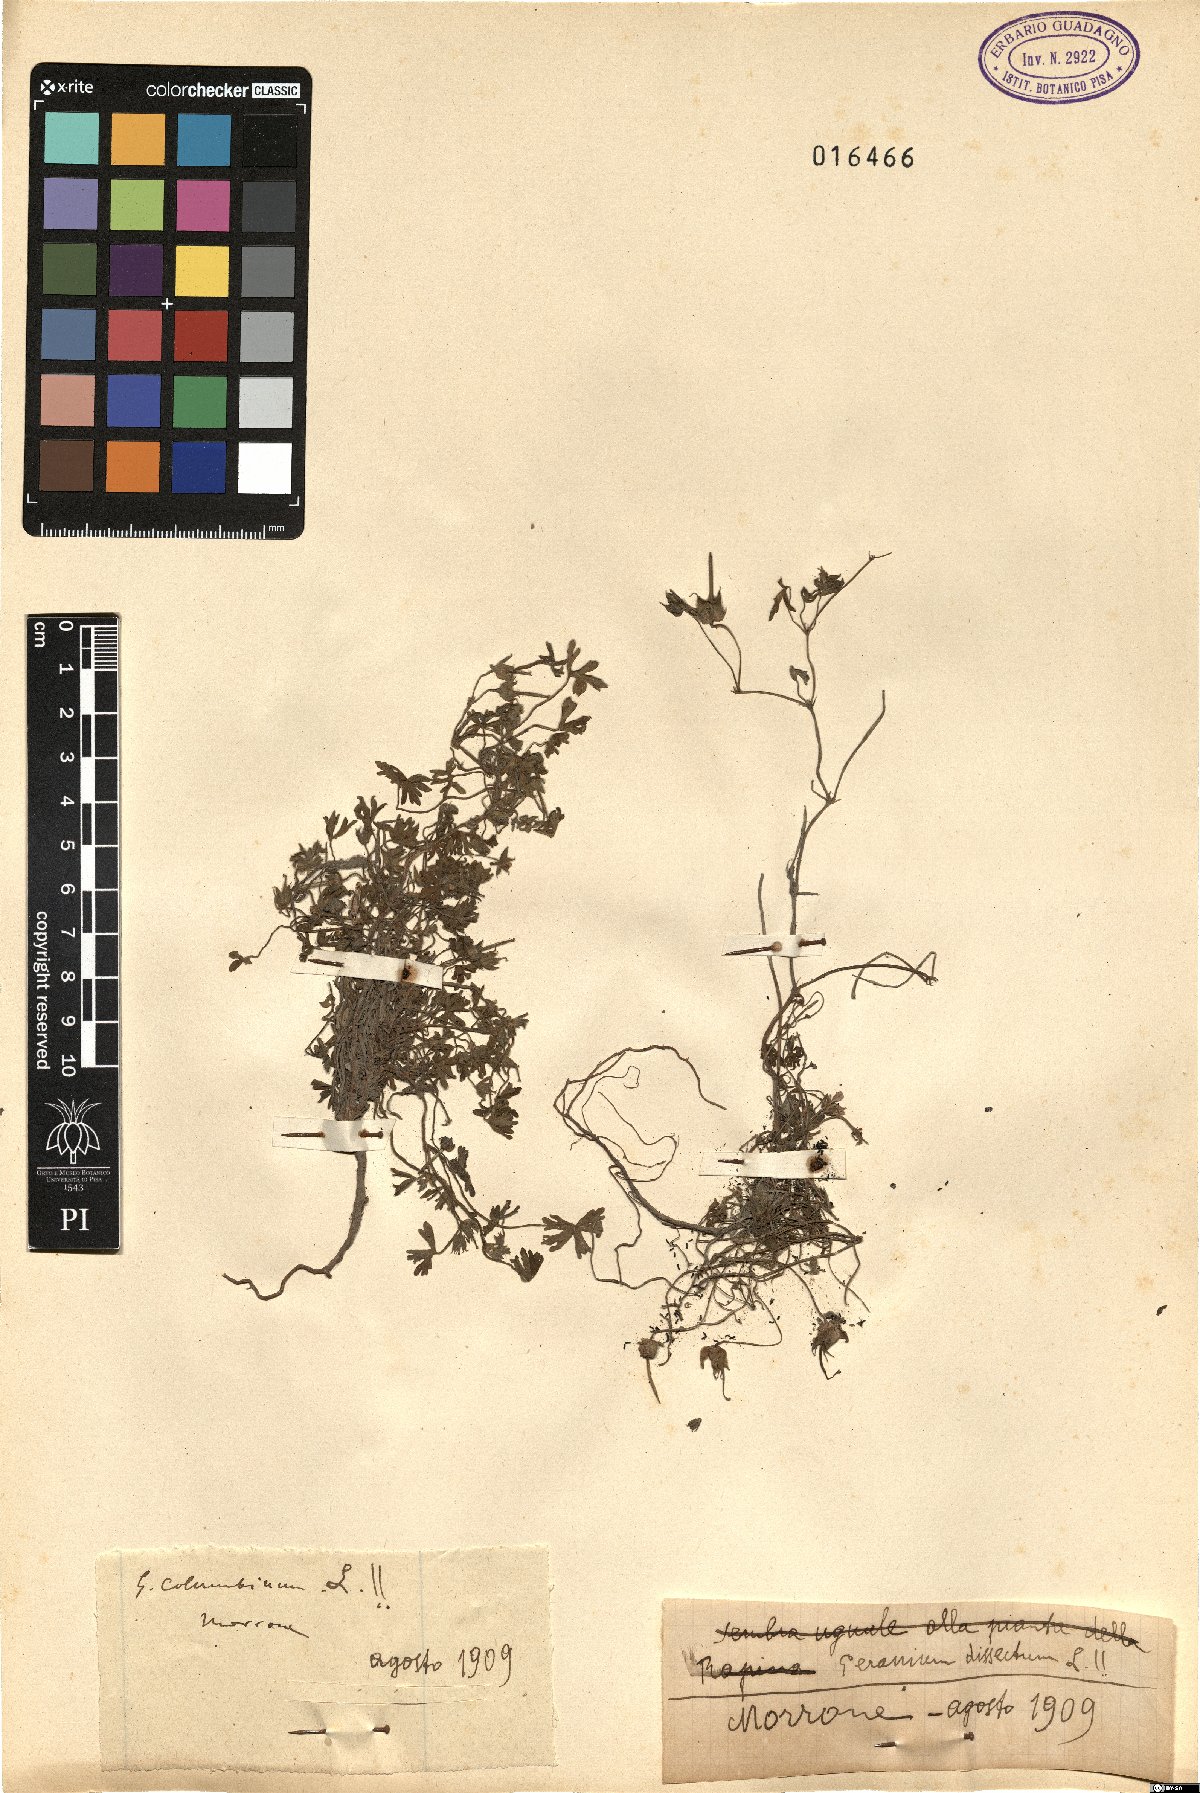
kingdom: Plantae
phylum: Tracheophyta
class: Magnoliopsida
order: Geraniales
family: Geraniaceae
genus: Geranium
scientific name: Geranium dissectum
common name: Cut-leaved crane's-bill
